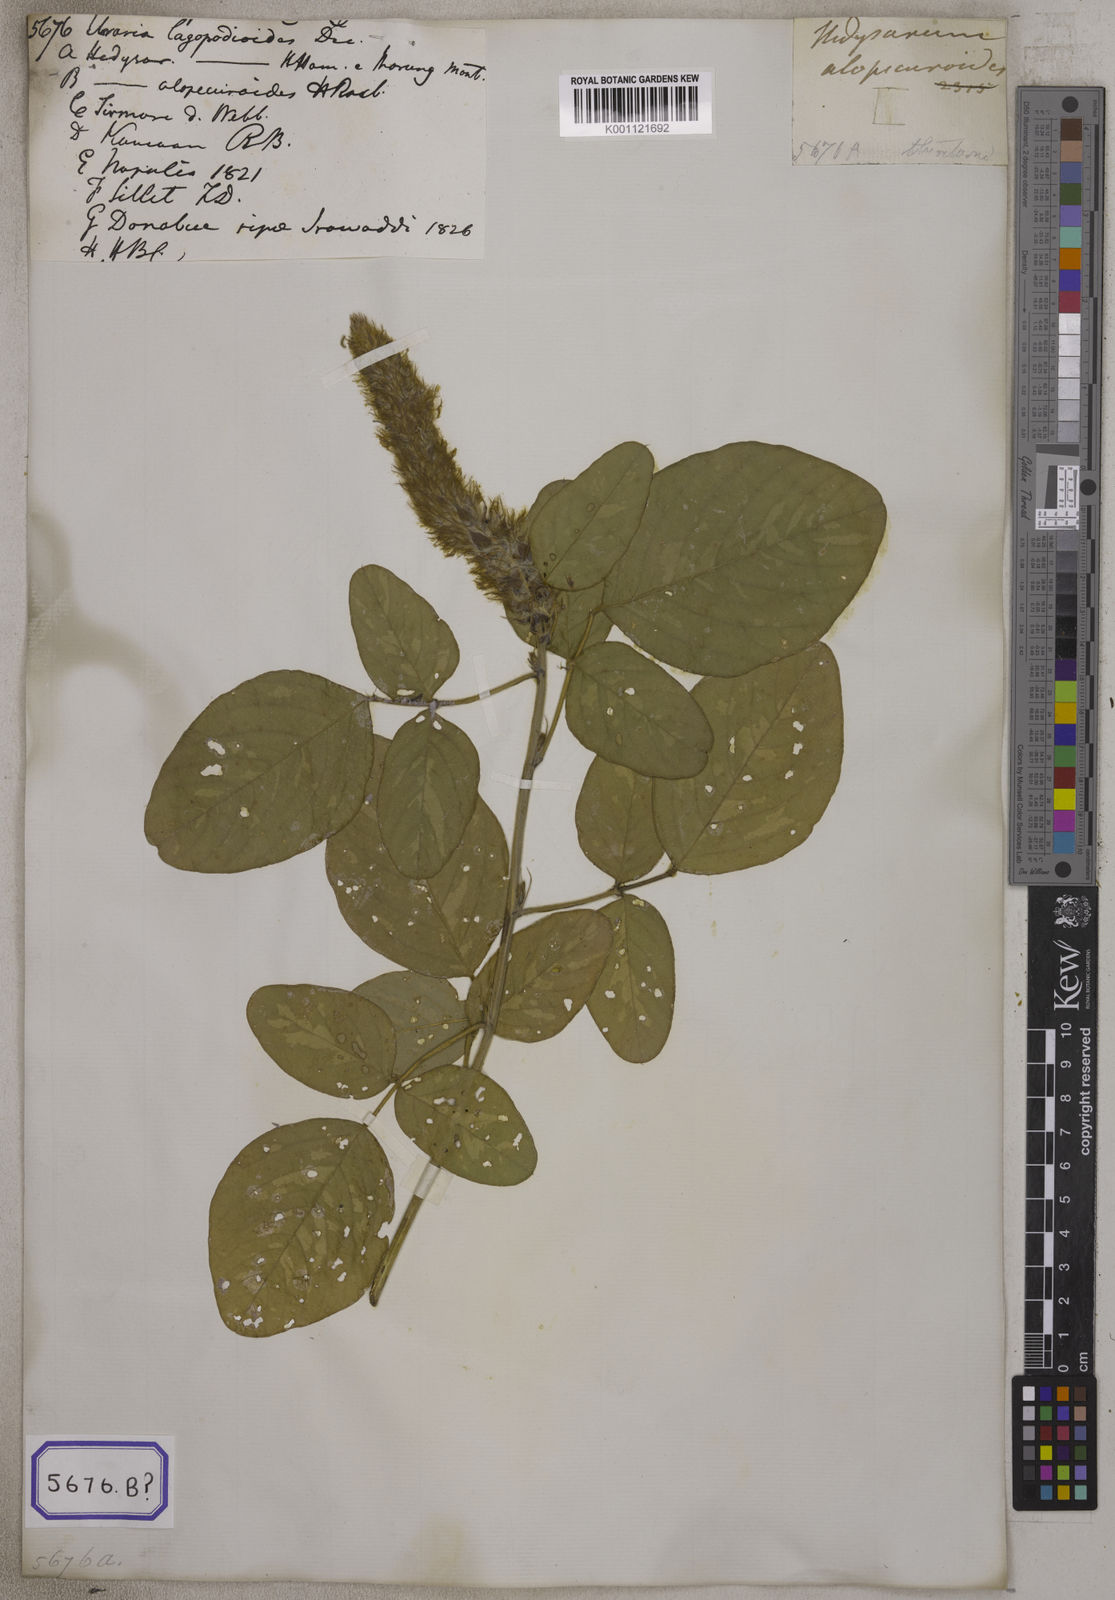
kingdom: Plantae
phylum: Tracheophyta
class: Magnoliopsida
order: Fabales
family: Fabaceae
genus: Uraria
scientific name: Uraria lagopodioides
